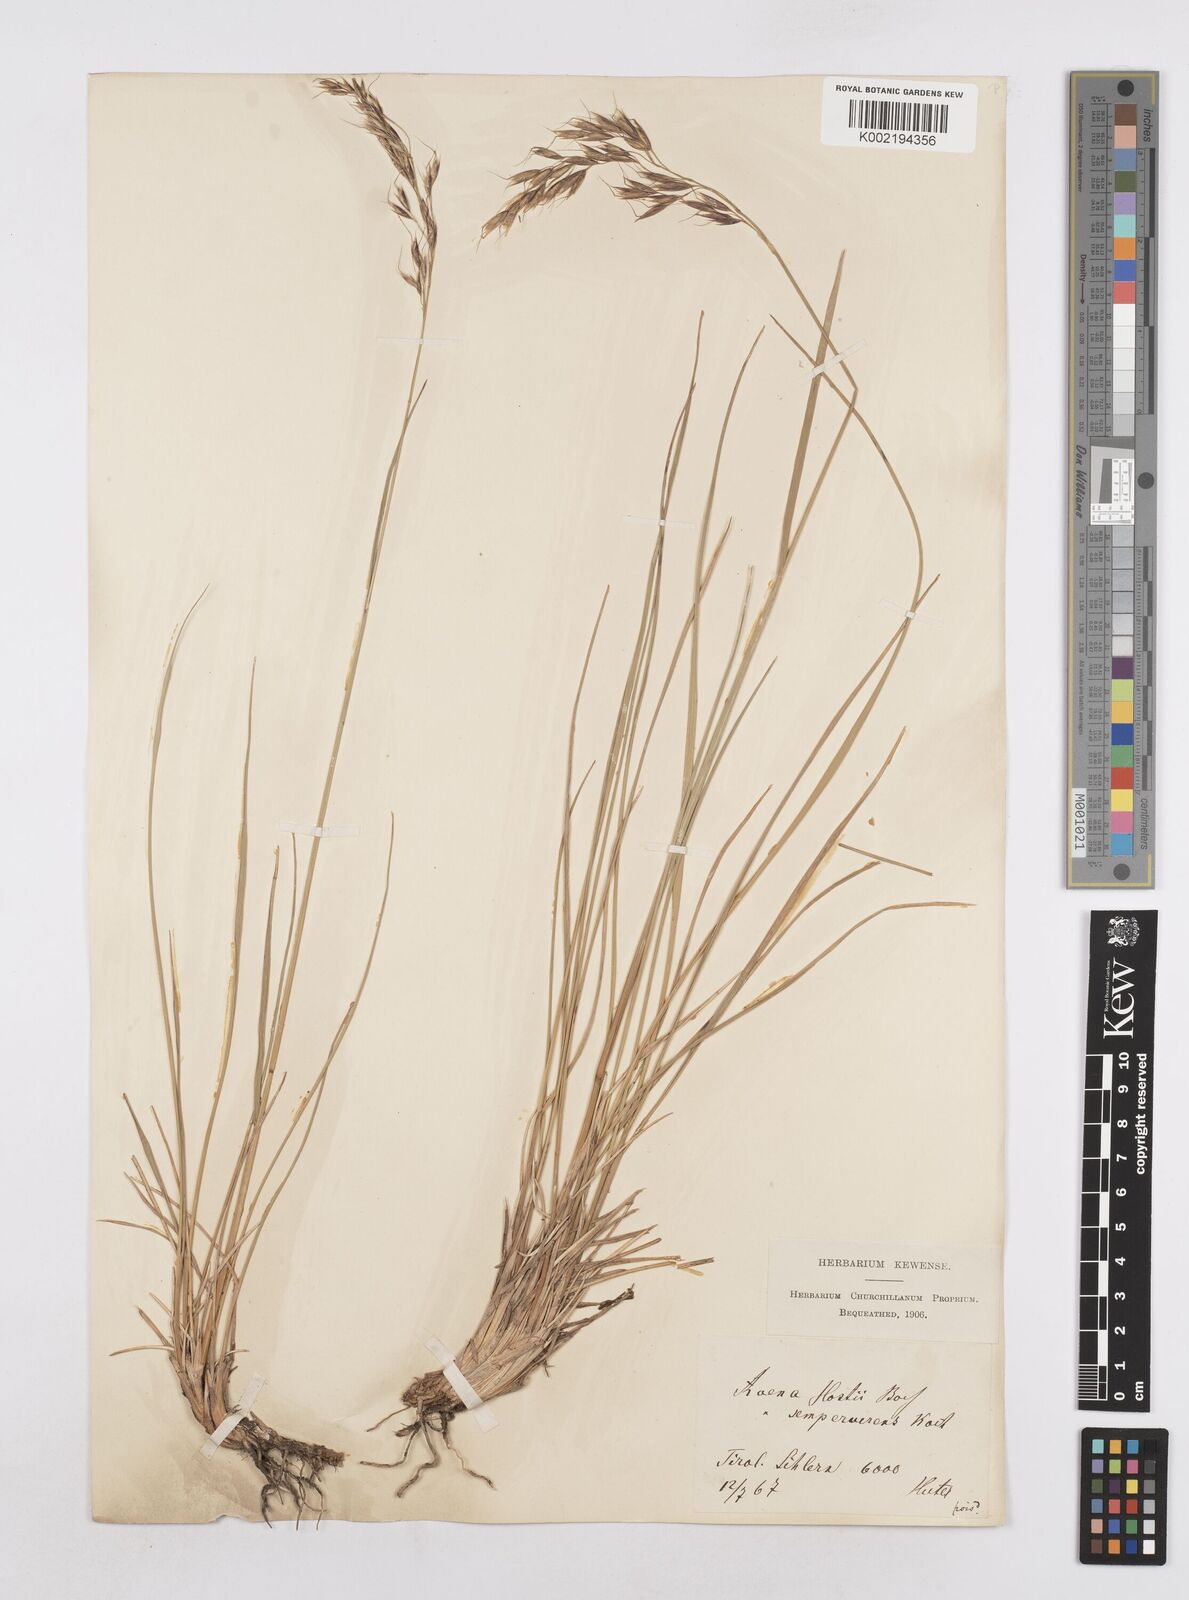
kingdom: Plantae
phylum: Tracheophyta
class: Liliopsida
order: Poales
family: Poaceae
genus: Helictotrichon
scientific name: Helictotrichon parlatorei
